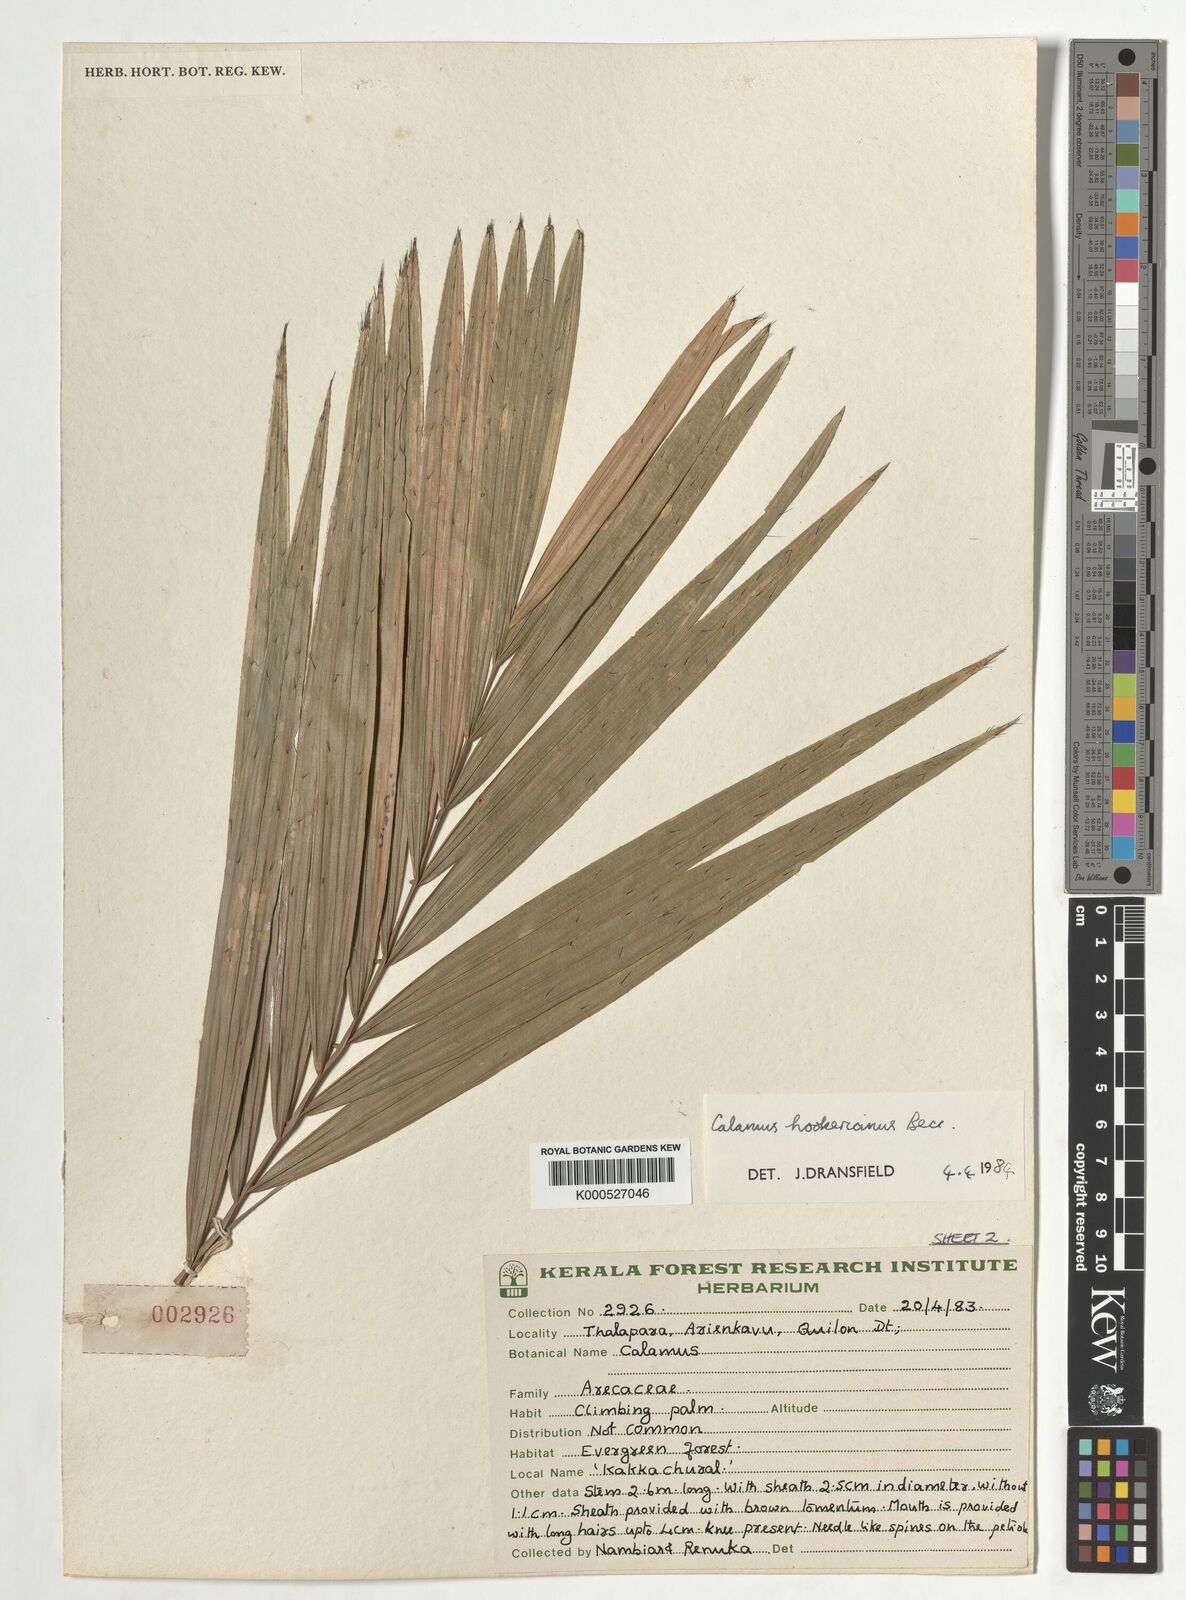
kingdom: Plantae
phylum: Tracheophyta
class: Liliopsida
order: Arecales
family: Arecaceae
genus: Calamus
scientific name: Calamus hookerianus
